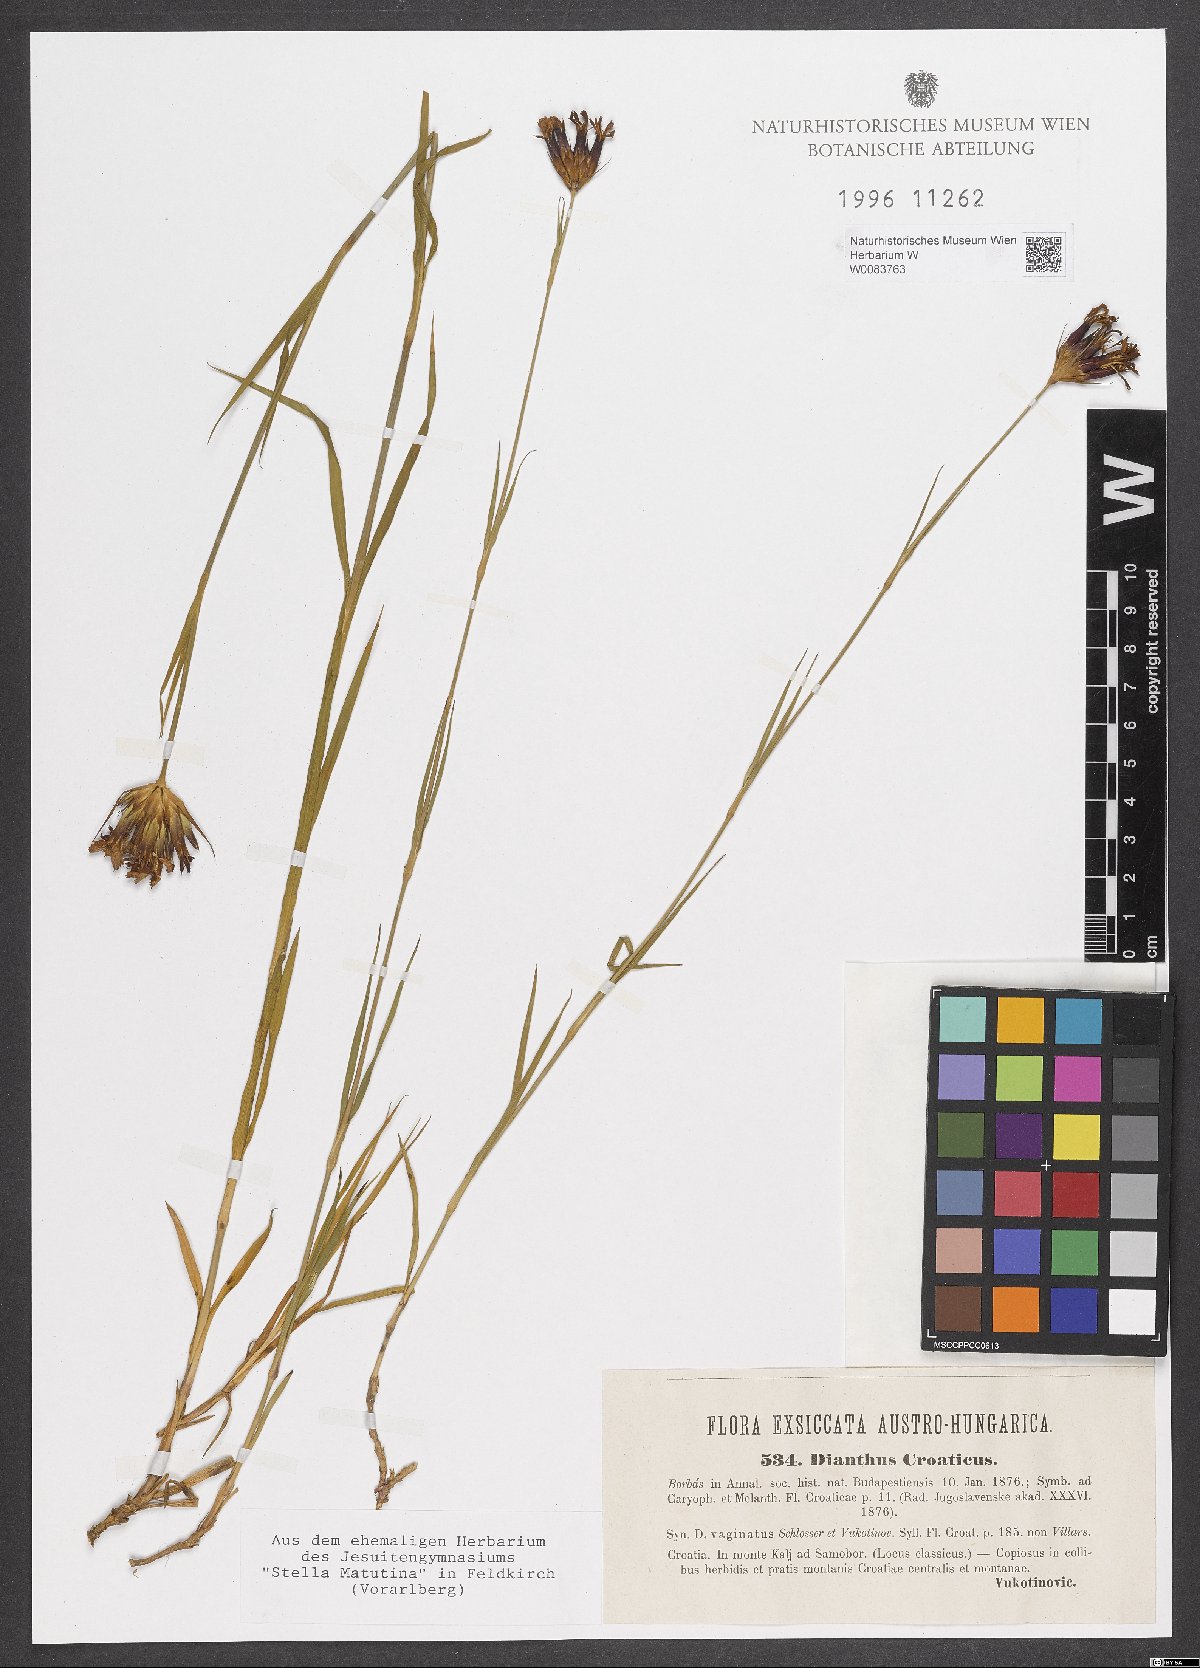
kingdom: Plantae
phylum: Tracheophyta
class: Magnoliopsida
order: Caryophyllales
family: Caryophyllaceae
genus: Dianthus
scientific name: Dianthus giganteus
